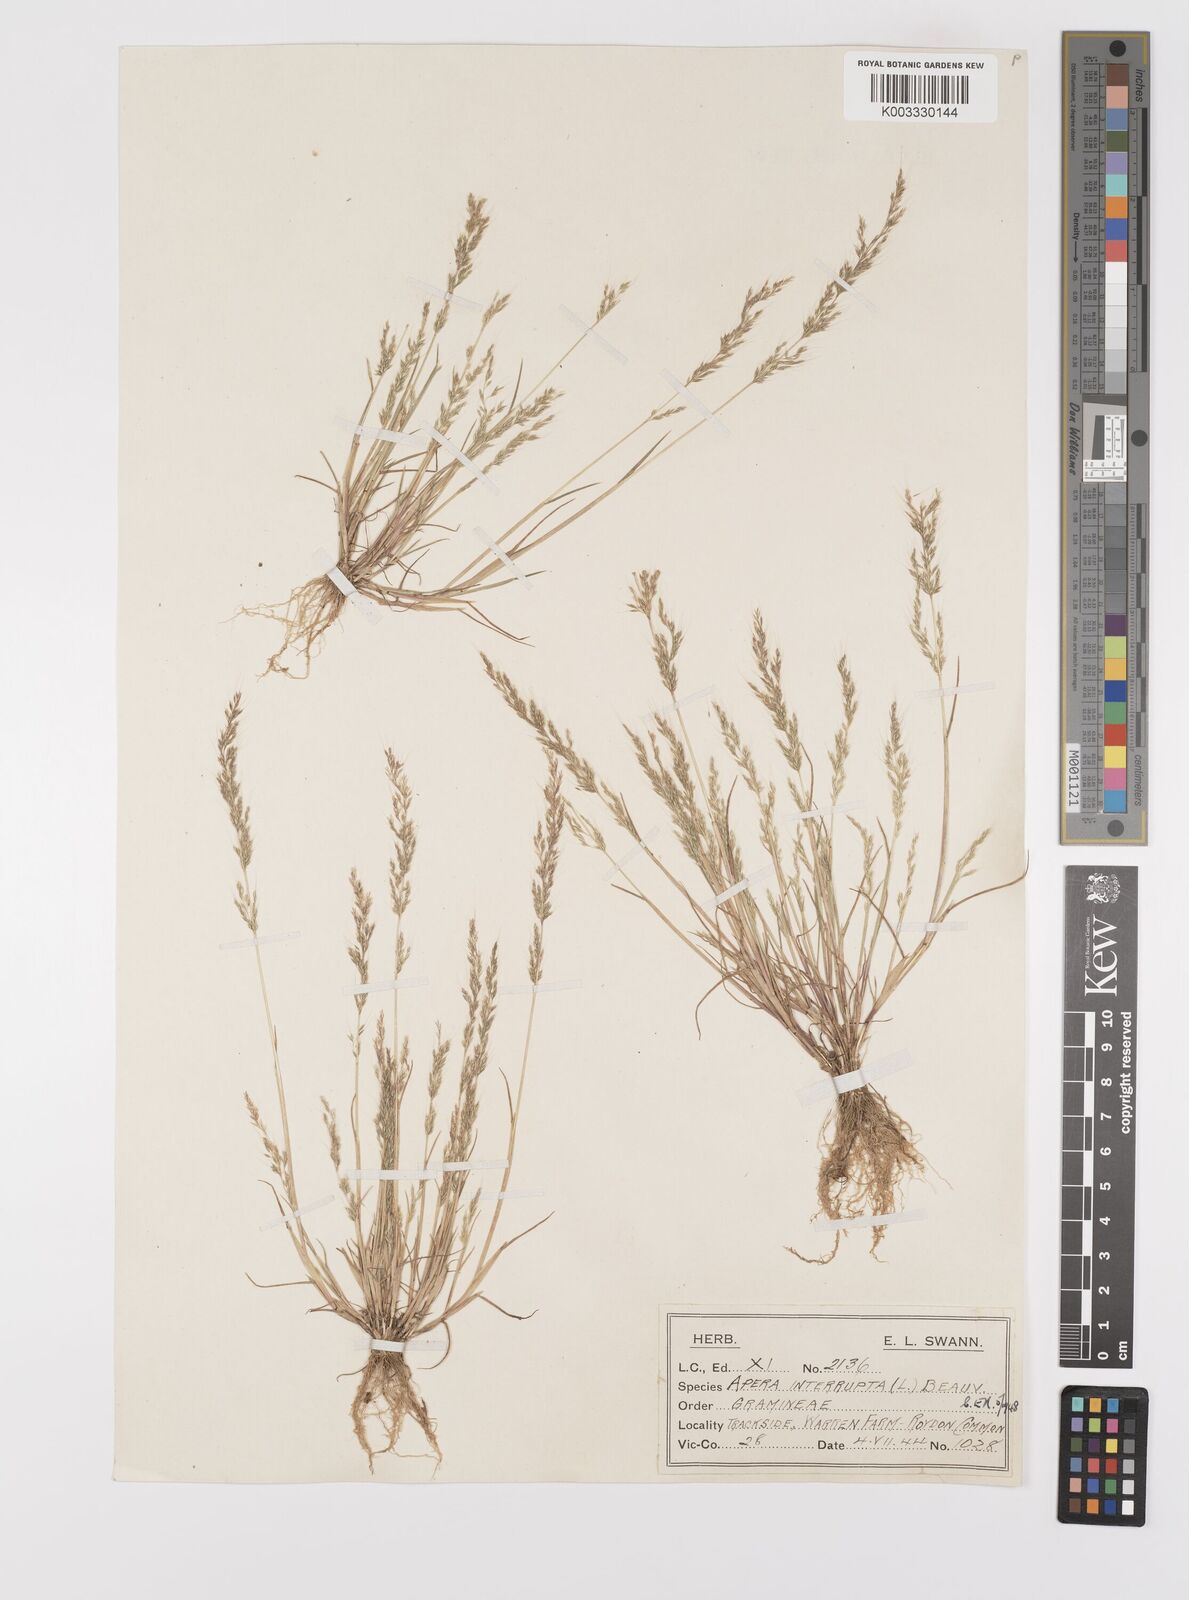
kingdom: Plantae
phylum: Tracheophyta
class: Liliopsida
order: Poales
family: Poaceae
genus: Apera
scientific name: Apera interrupta
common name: Dense silky-bent
